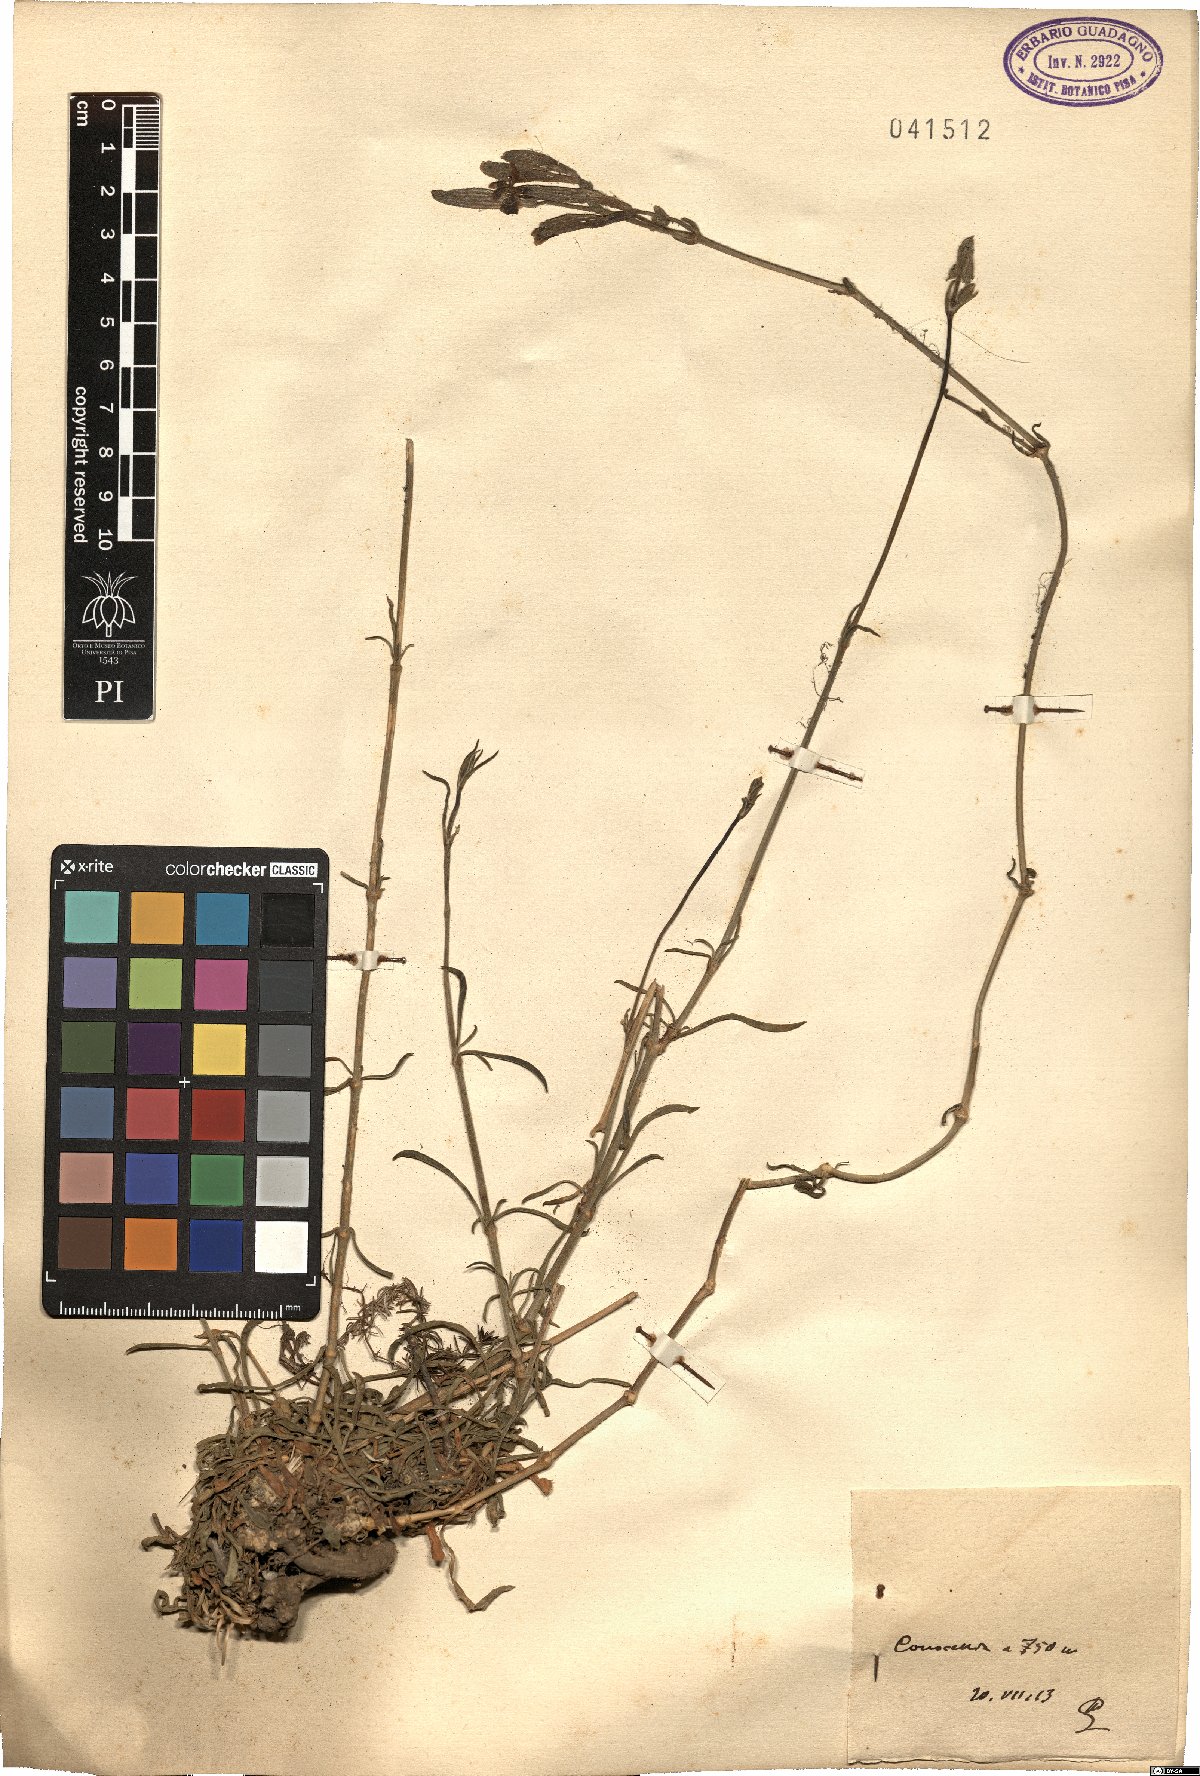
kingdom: Plantae
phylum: Tracheophyta
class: Magnoliopsida
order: Caryophyllales
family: Caryophyllaceae
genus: Silene
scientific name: Silene
